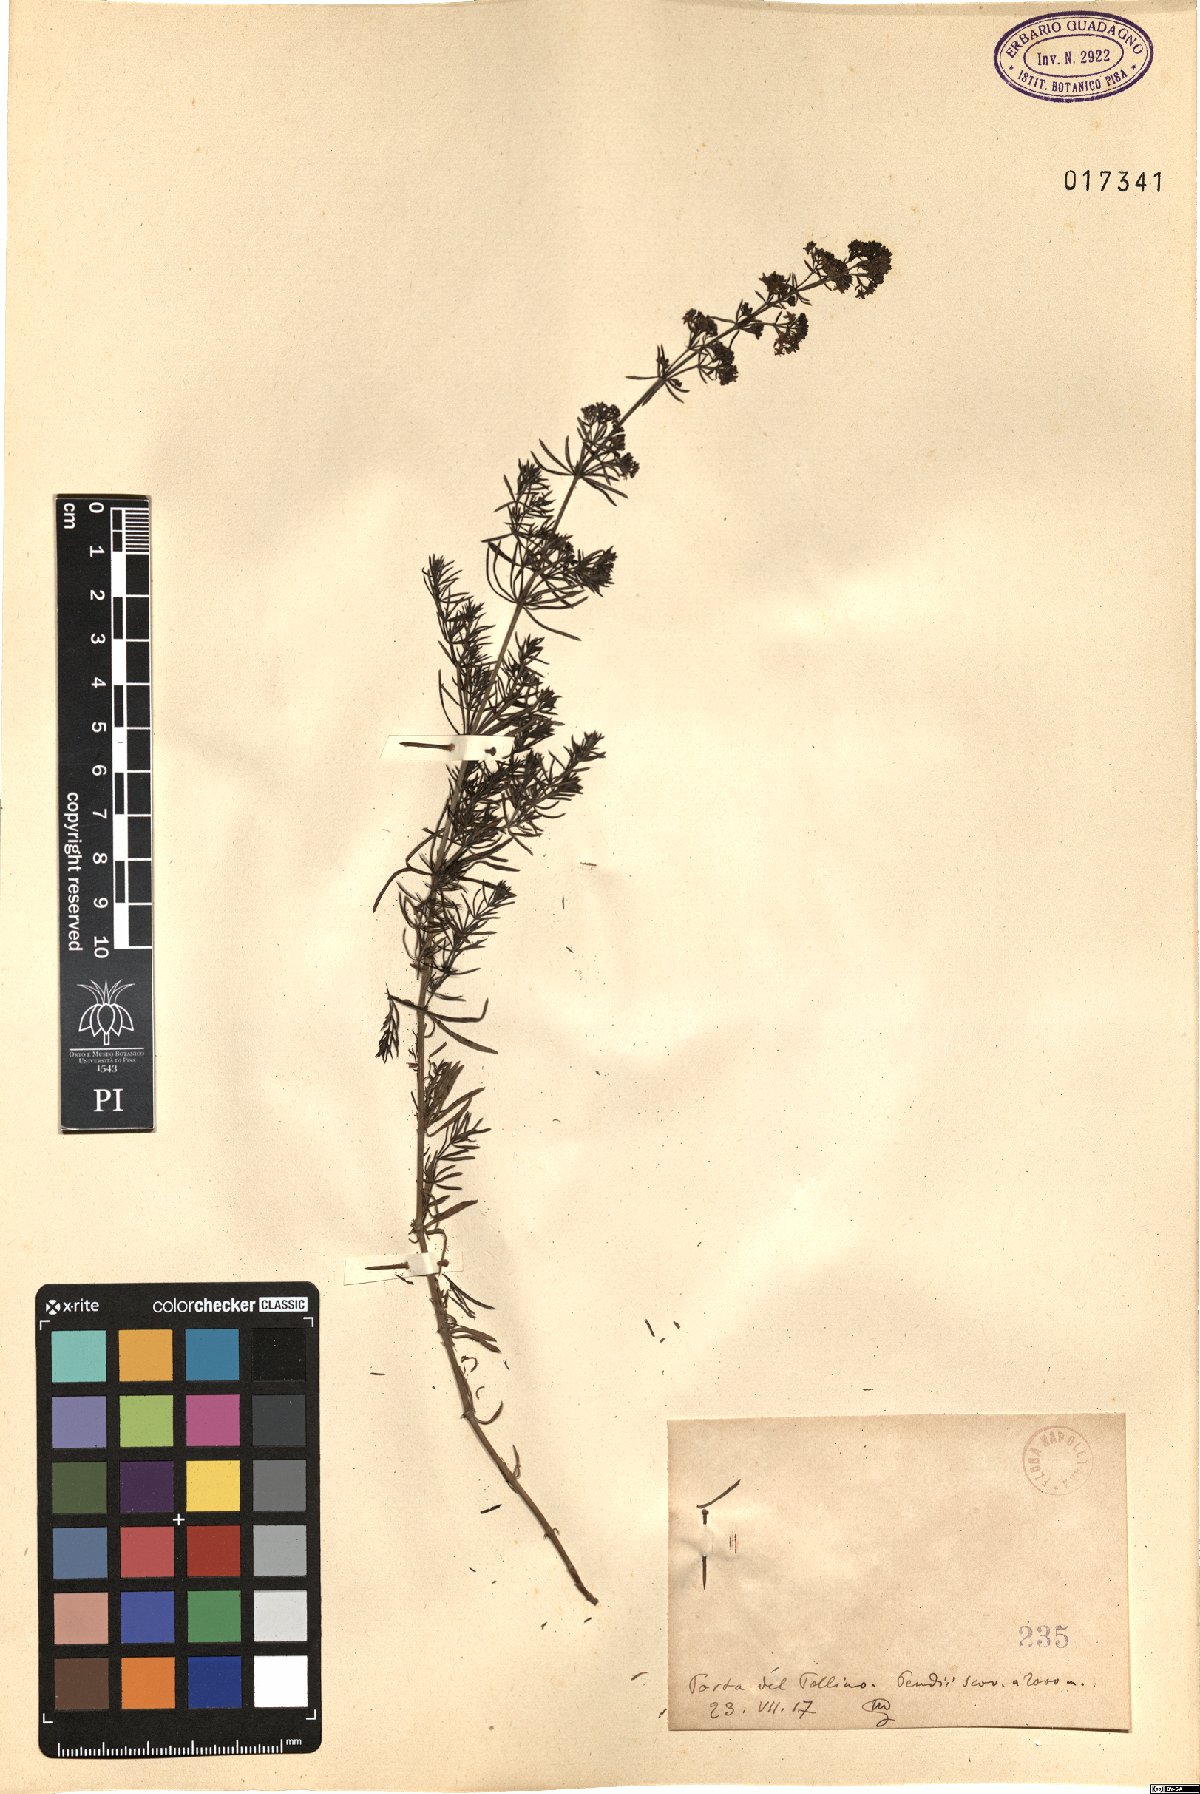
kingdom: Plantae
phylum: Tracheophyta
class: Magnoliopsida
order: Gentianales
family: Rubiaceae
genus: Galium
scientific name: Galium
